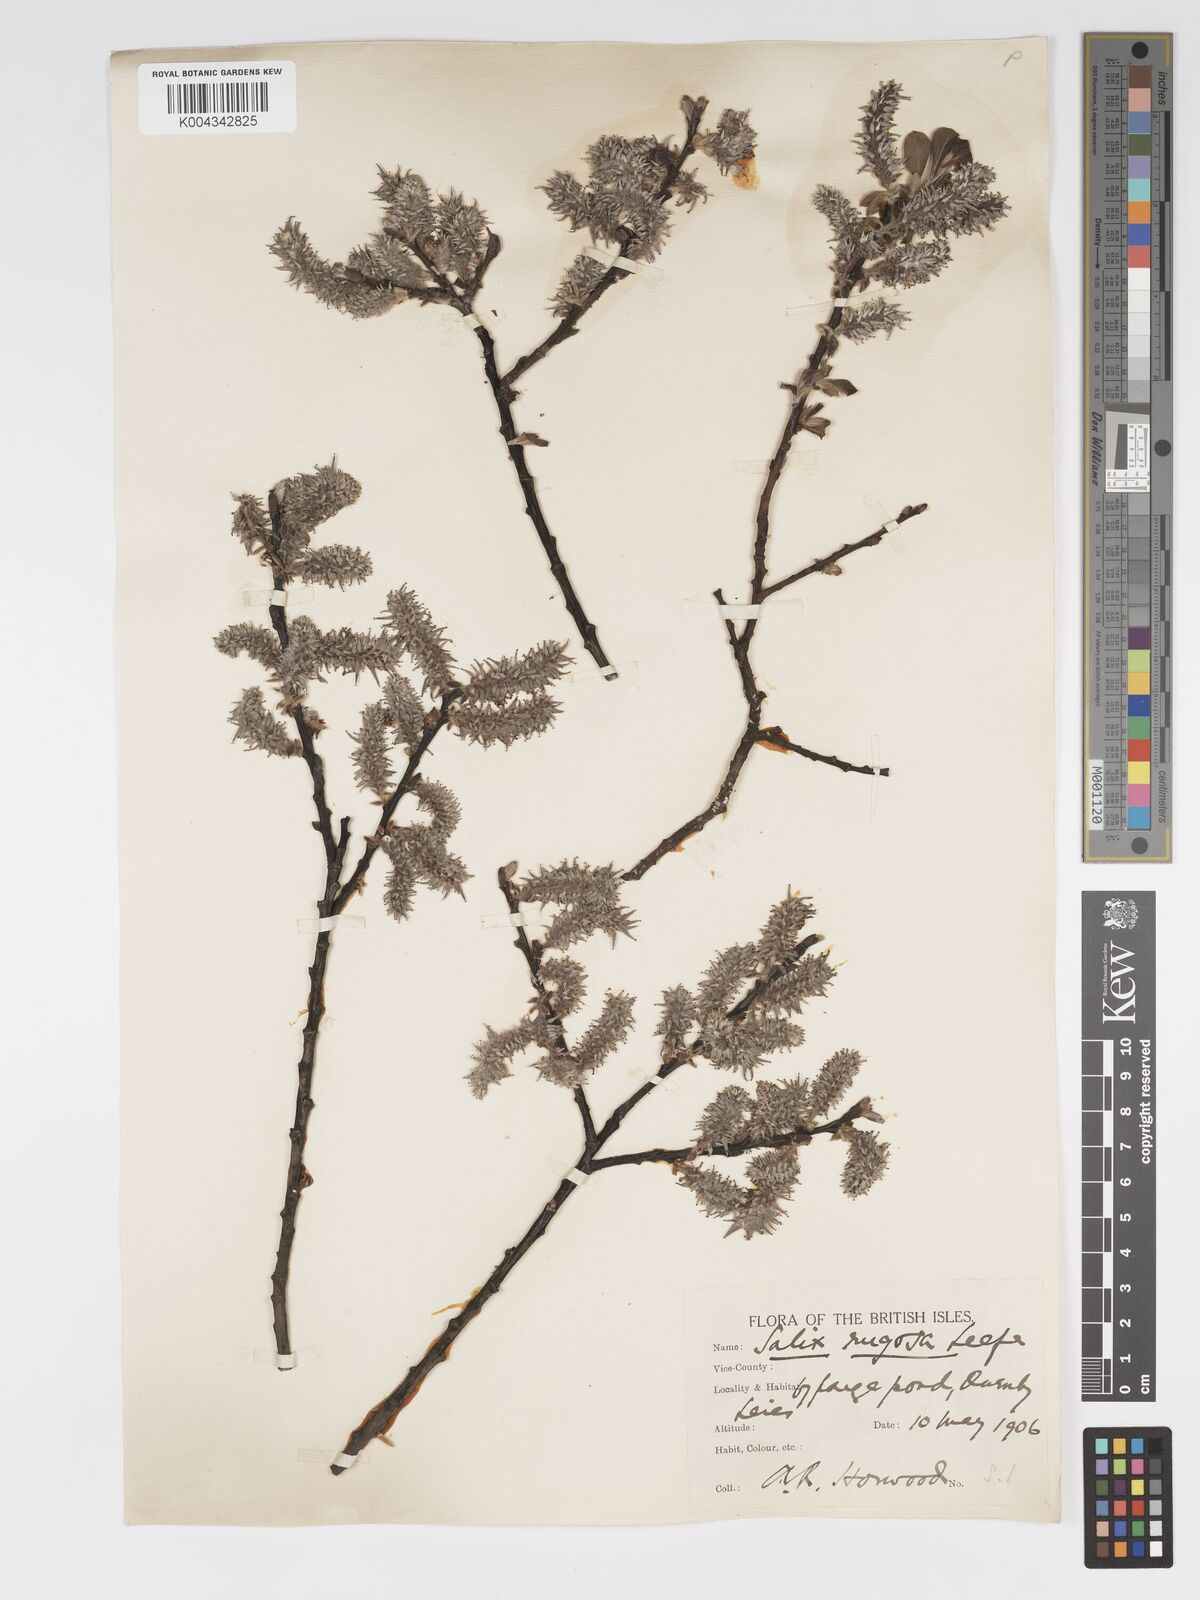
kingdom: Plantae
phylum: Tracheophyta
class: Magnoliopsida
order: Malpighiales
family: Salicaceae
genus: Salix
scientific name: Salix atrocinerea
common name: Rusty willow
